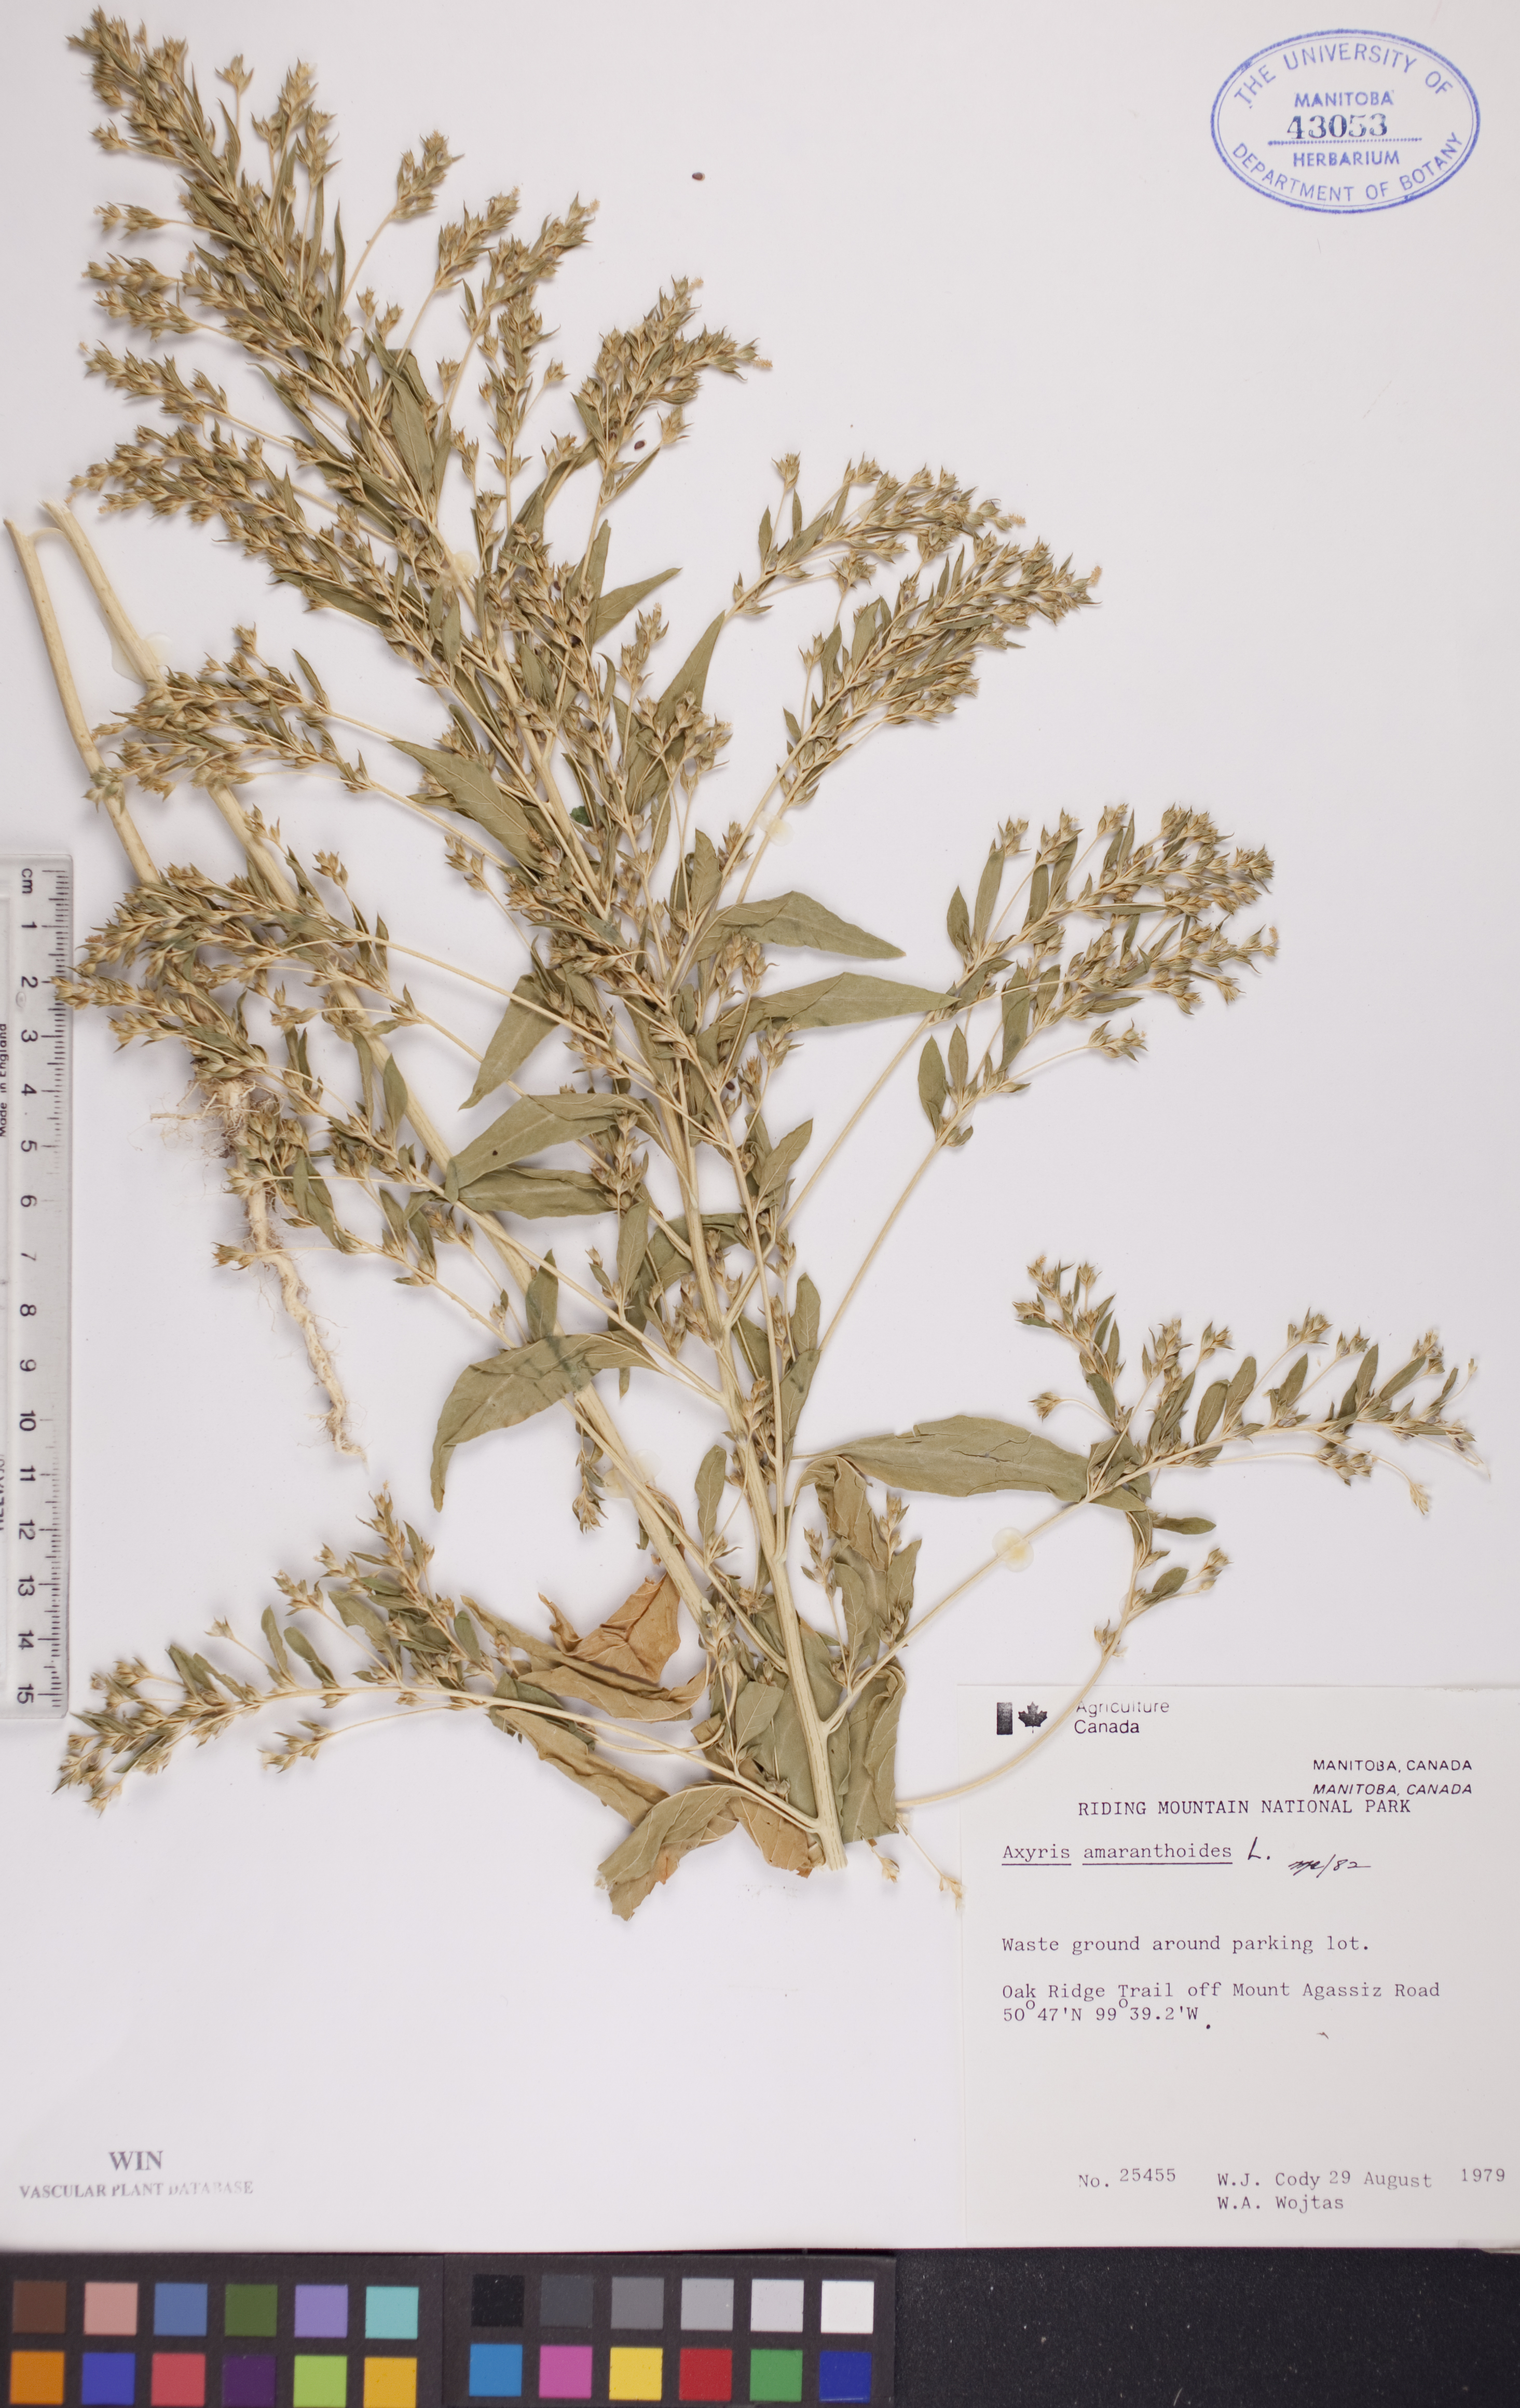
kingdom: Plantae
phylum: Tracheophyta
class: Magnoliopsida
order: Caryophyllales
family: Amaranthaceae
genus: Axyris
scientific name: Axyris amaranthoides
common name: Russian pigweed
